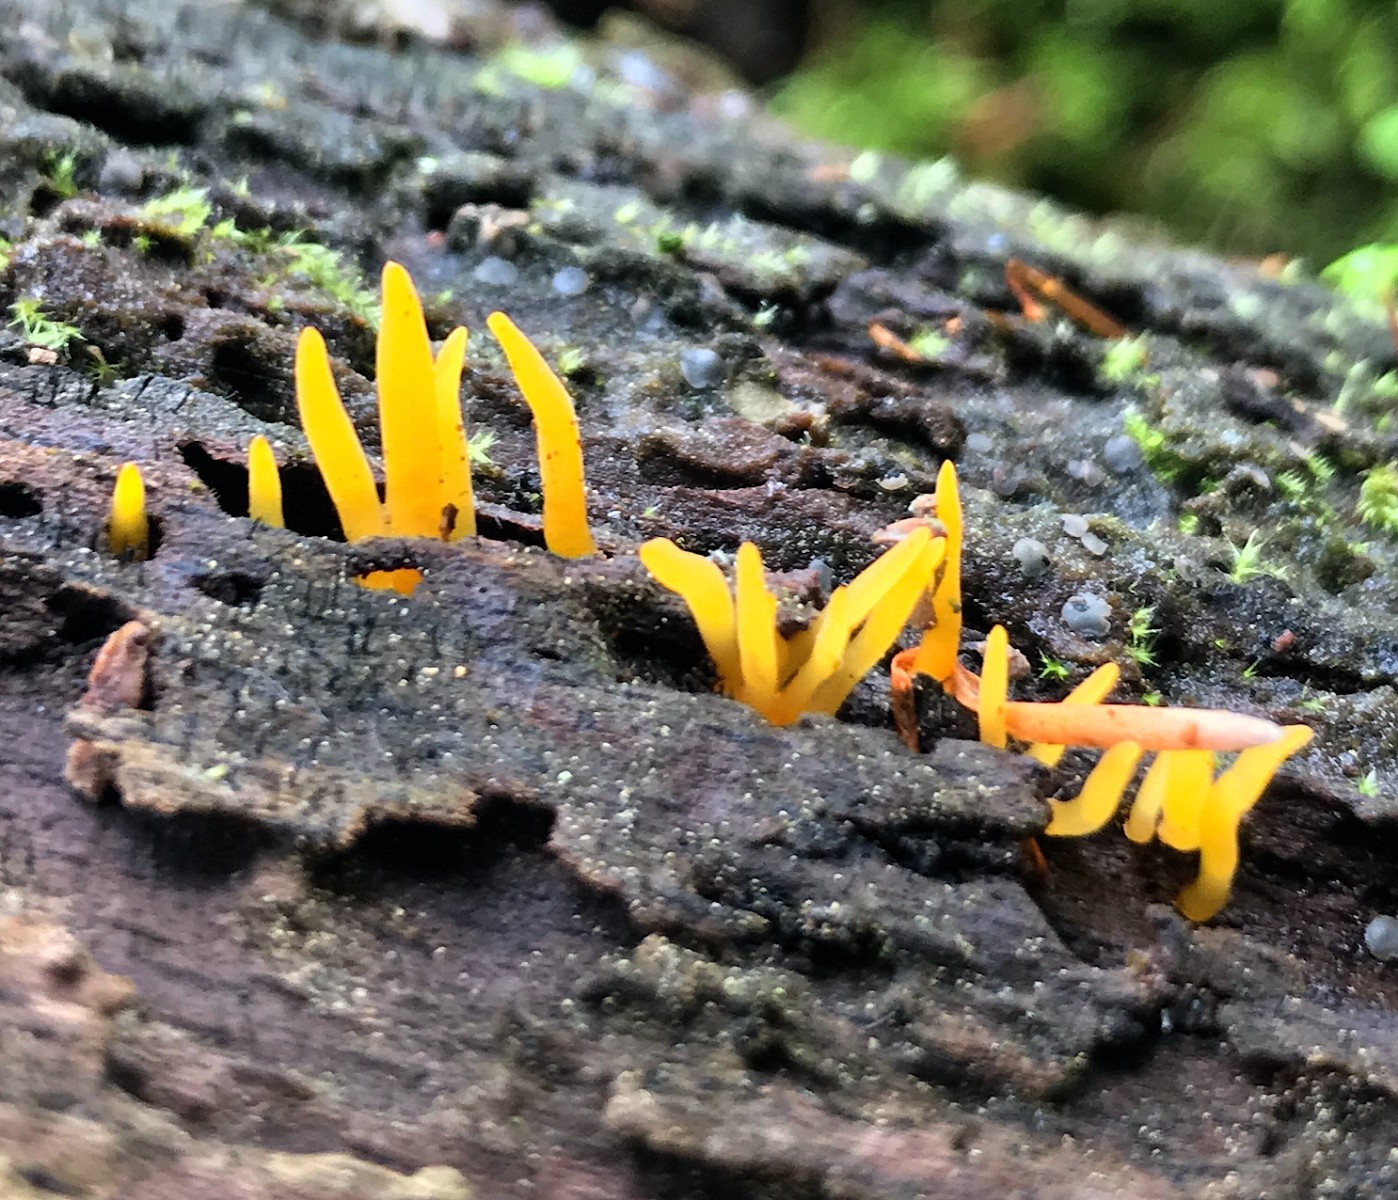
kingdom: Fungi
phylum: Basidiomycota
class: Dacrymycetes
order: Dacrymycetales
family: Dacrymycetaceae
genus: Calocera
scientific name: Calocera cornea
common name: liden guldgaffel
